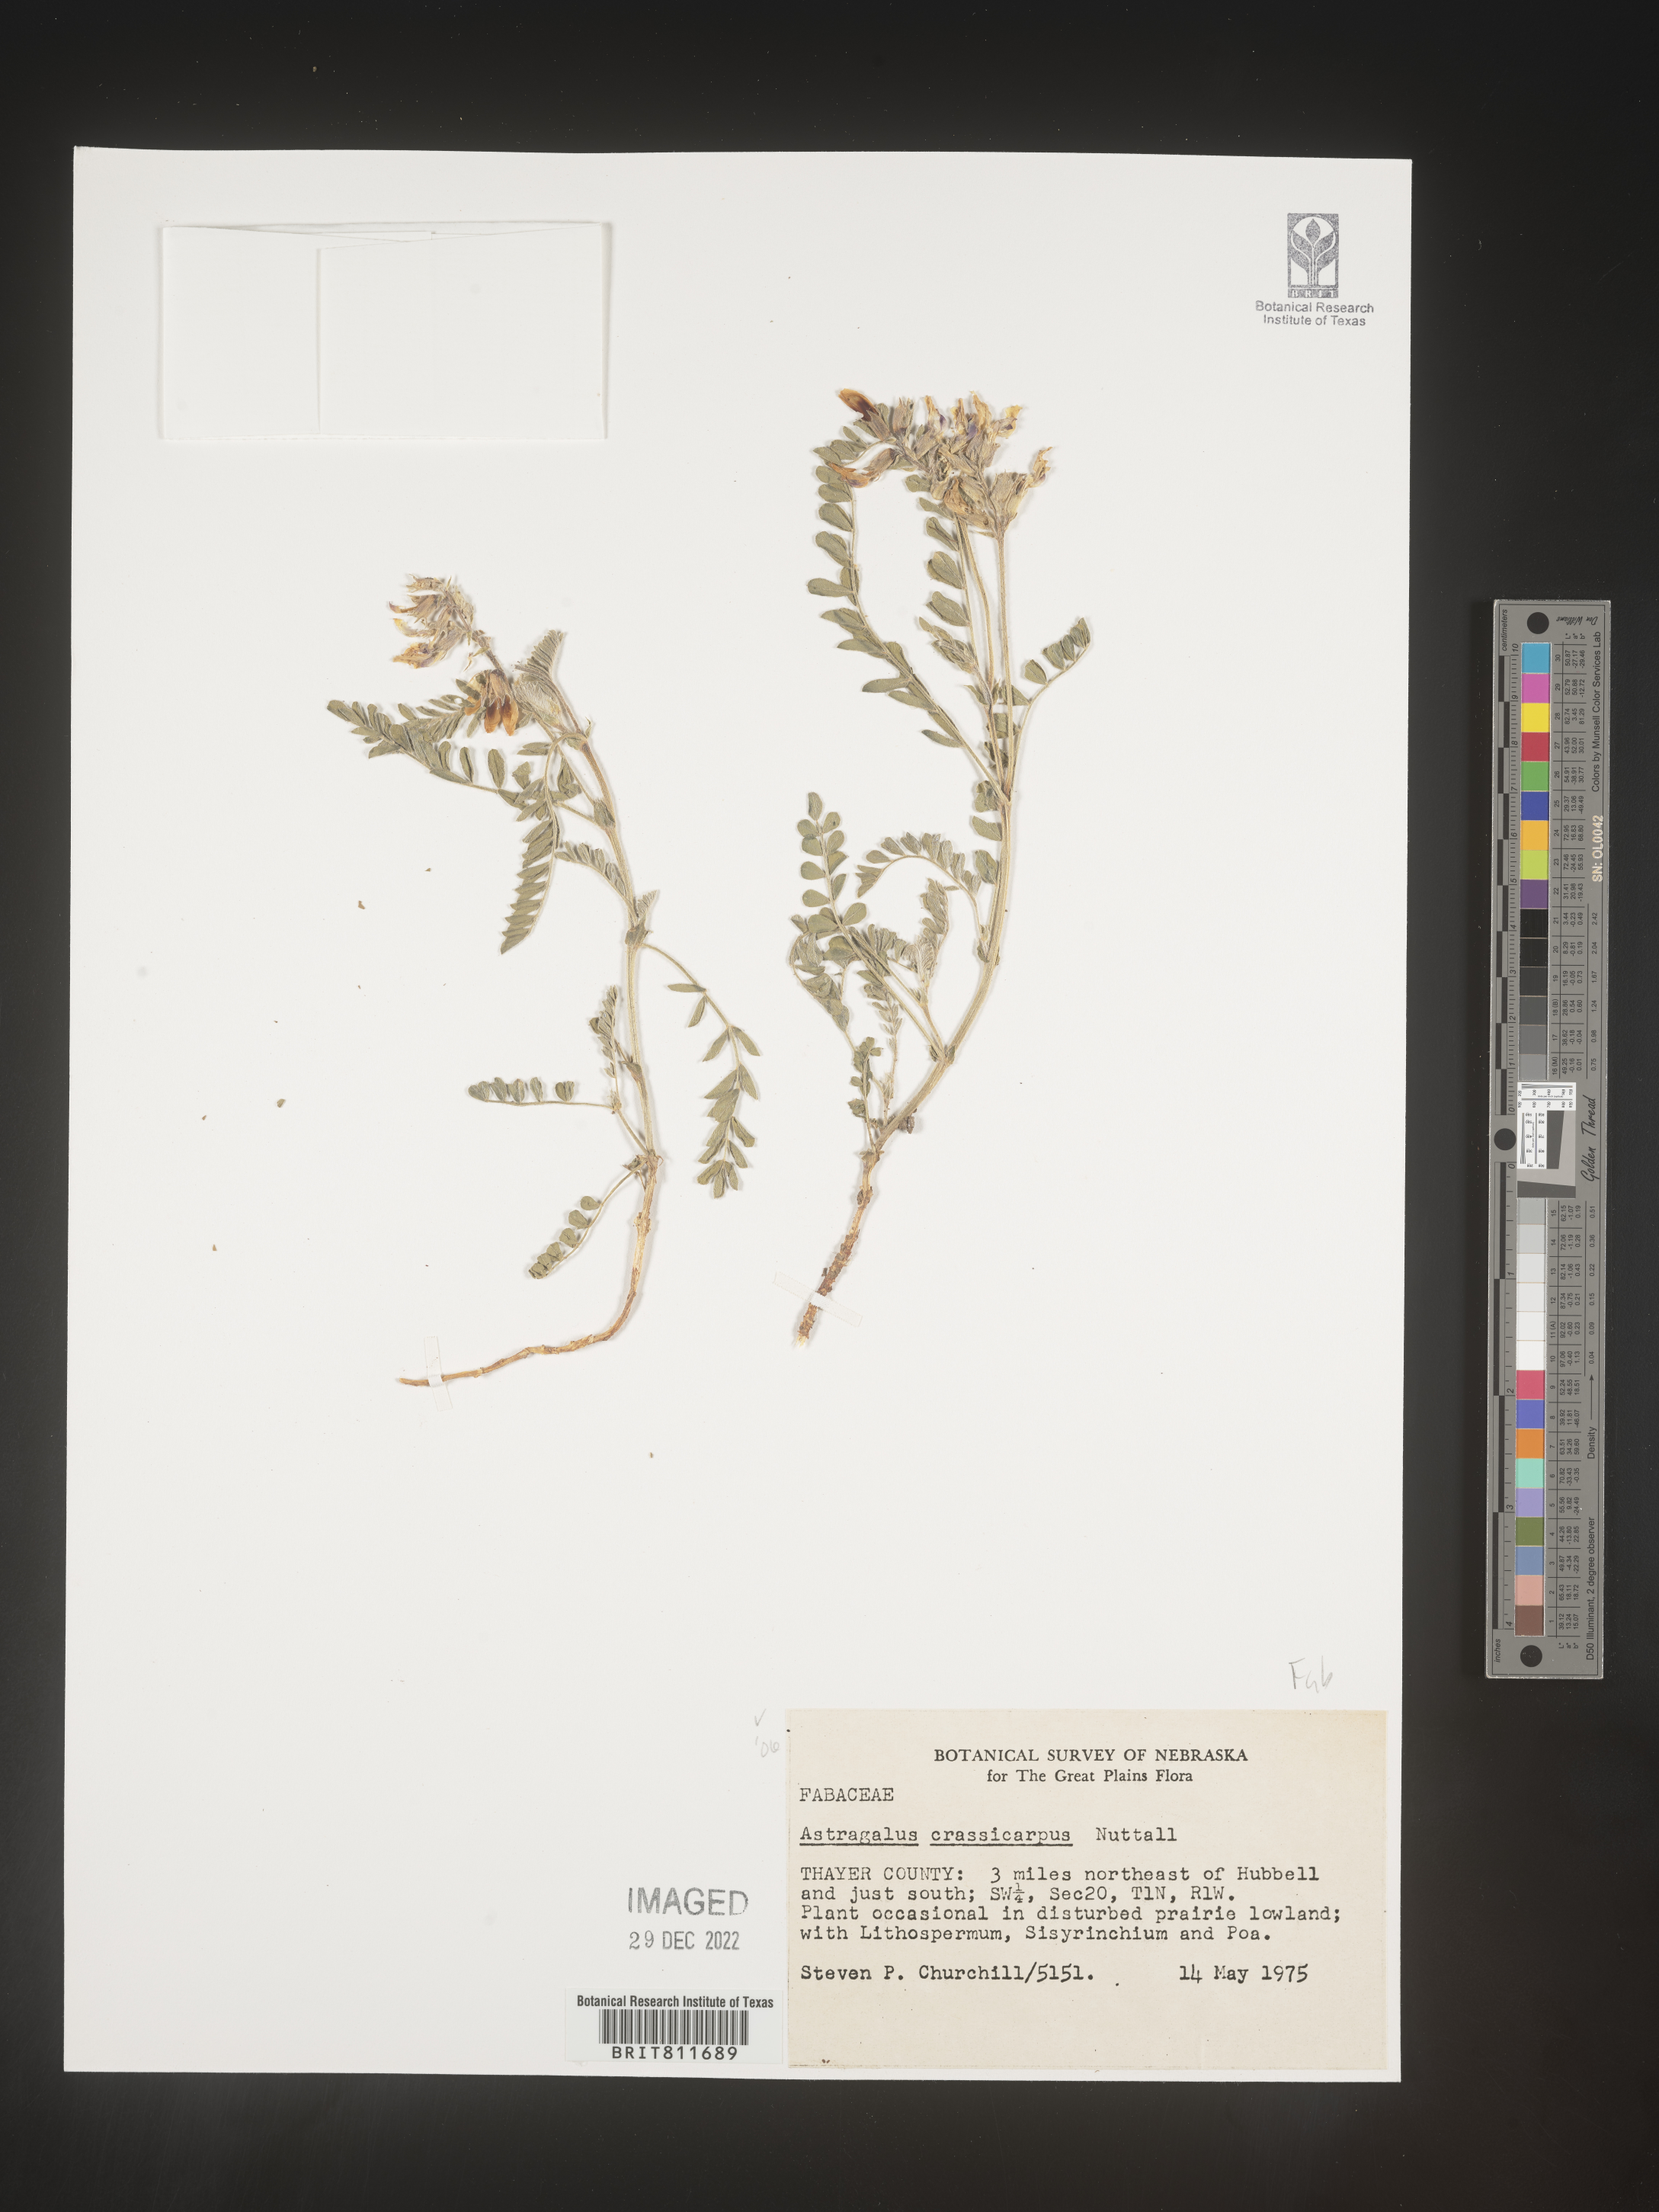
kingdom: Plantae
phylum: Tracheophyta
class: Magnoliopsida
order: Fabales
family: Fabaceae
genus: Astragalus
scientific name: Astragalus crassicarpus
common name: Ground-plum milk-vetch
